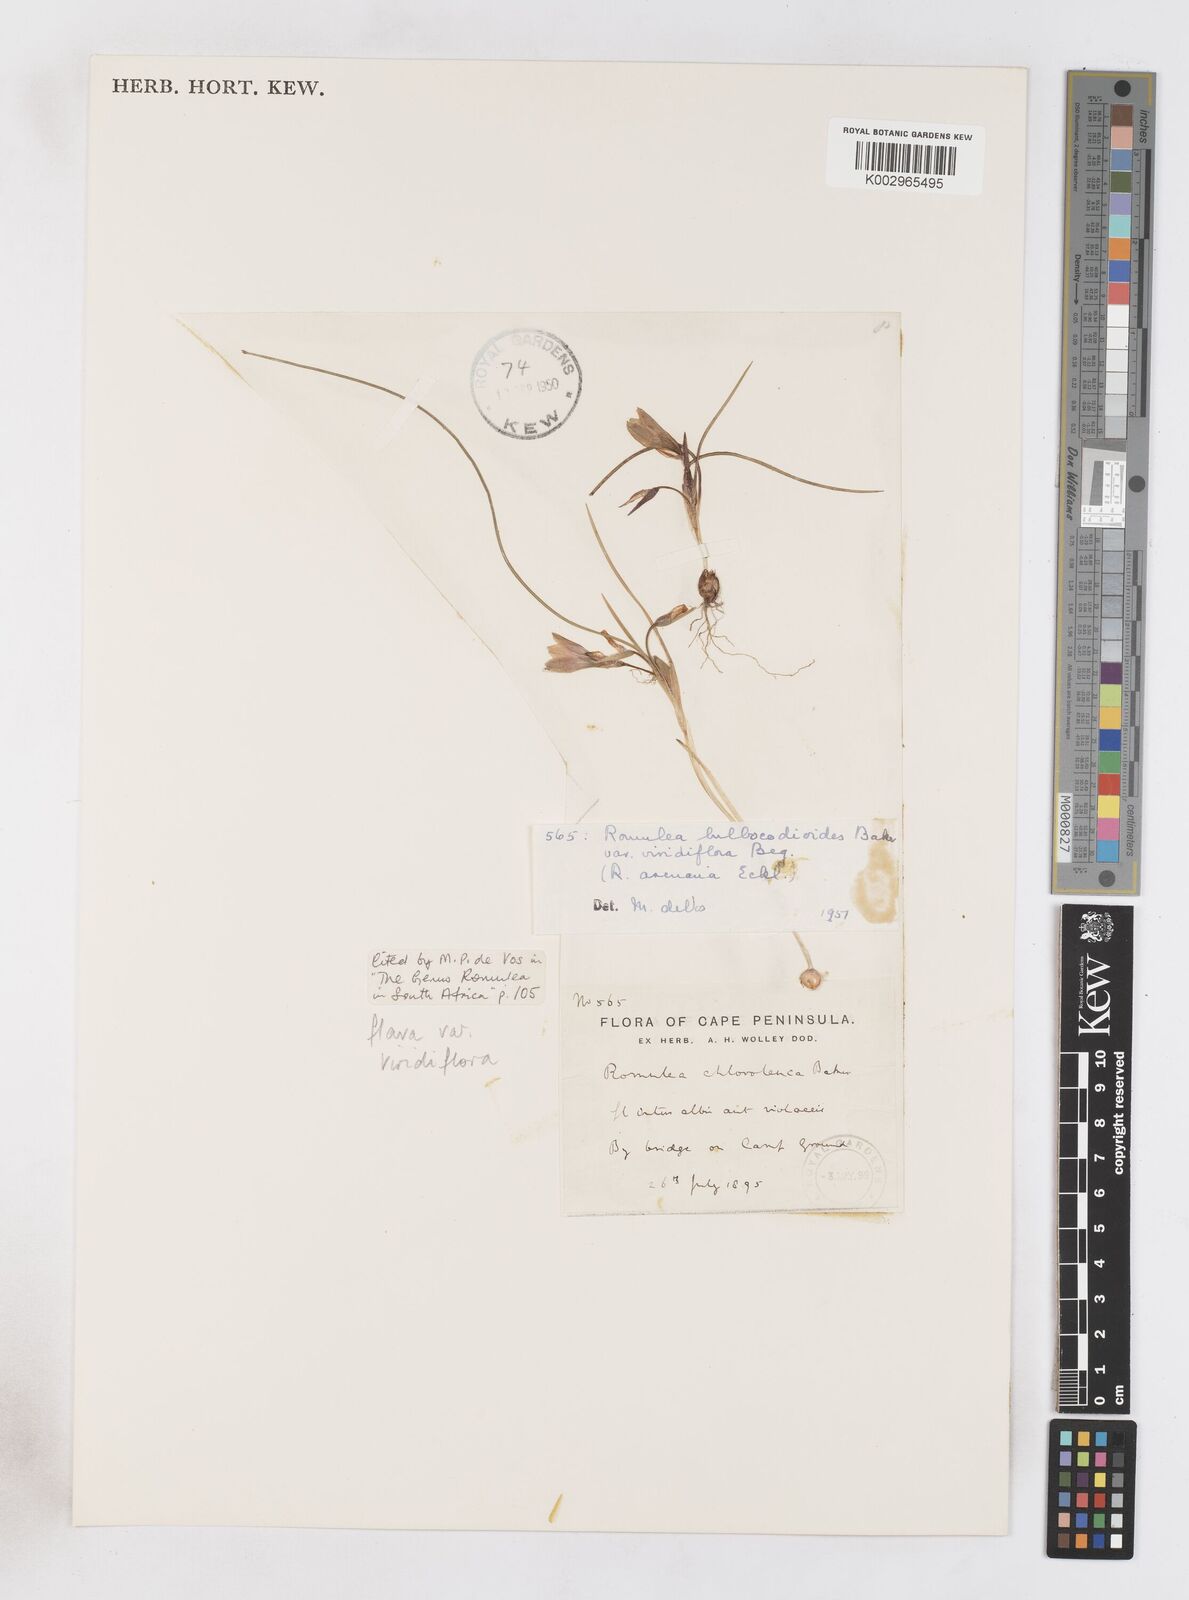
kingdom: Plantae
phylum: Tracheophyta
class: Liliopsida
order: Asparagales
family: Iridaceae
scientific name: Iridaceae
